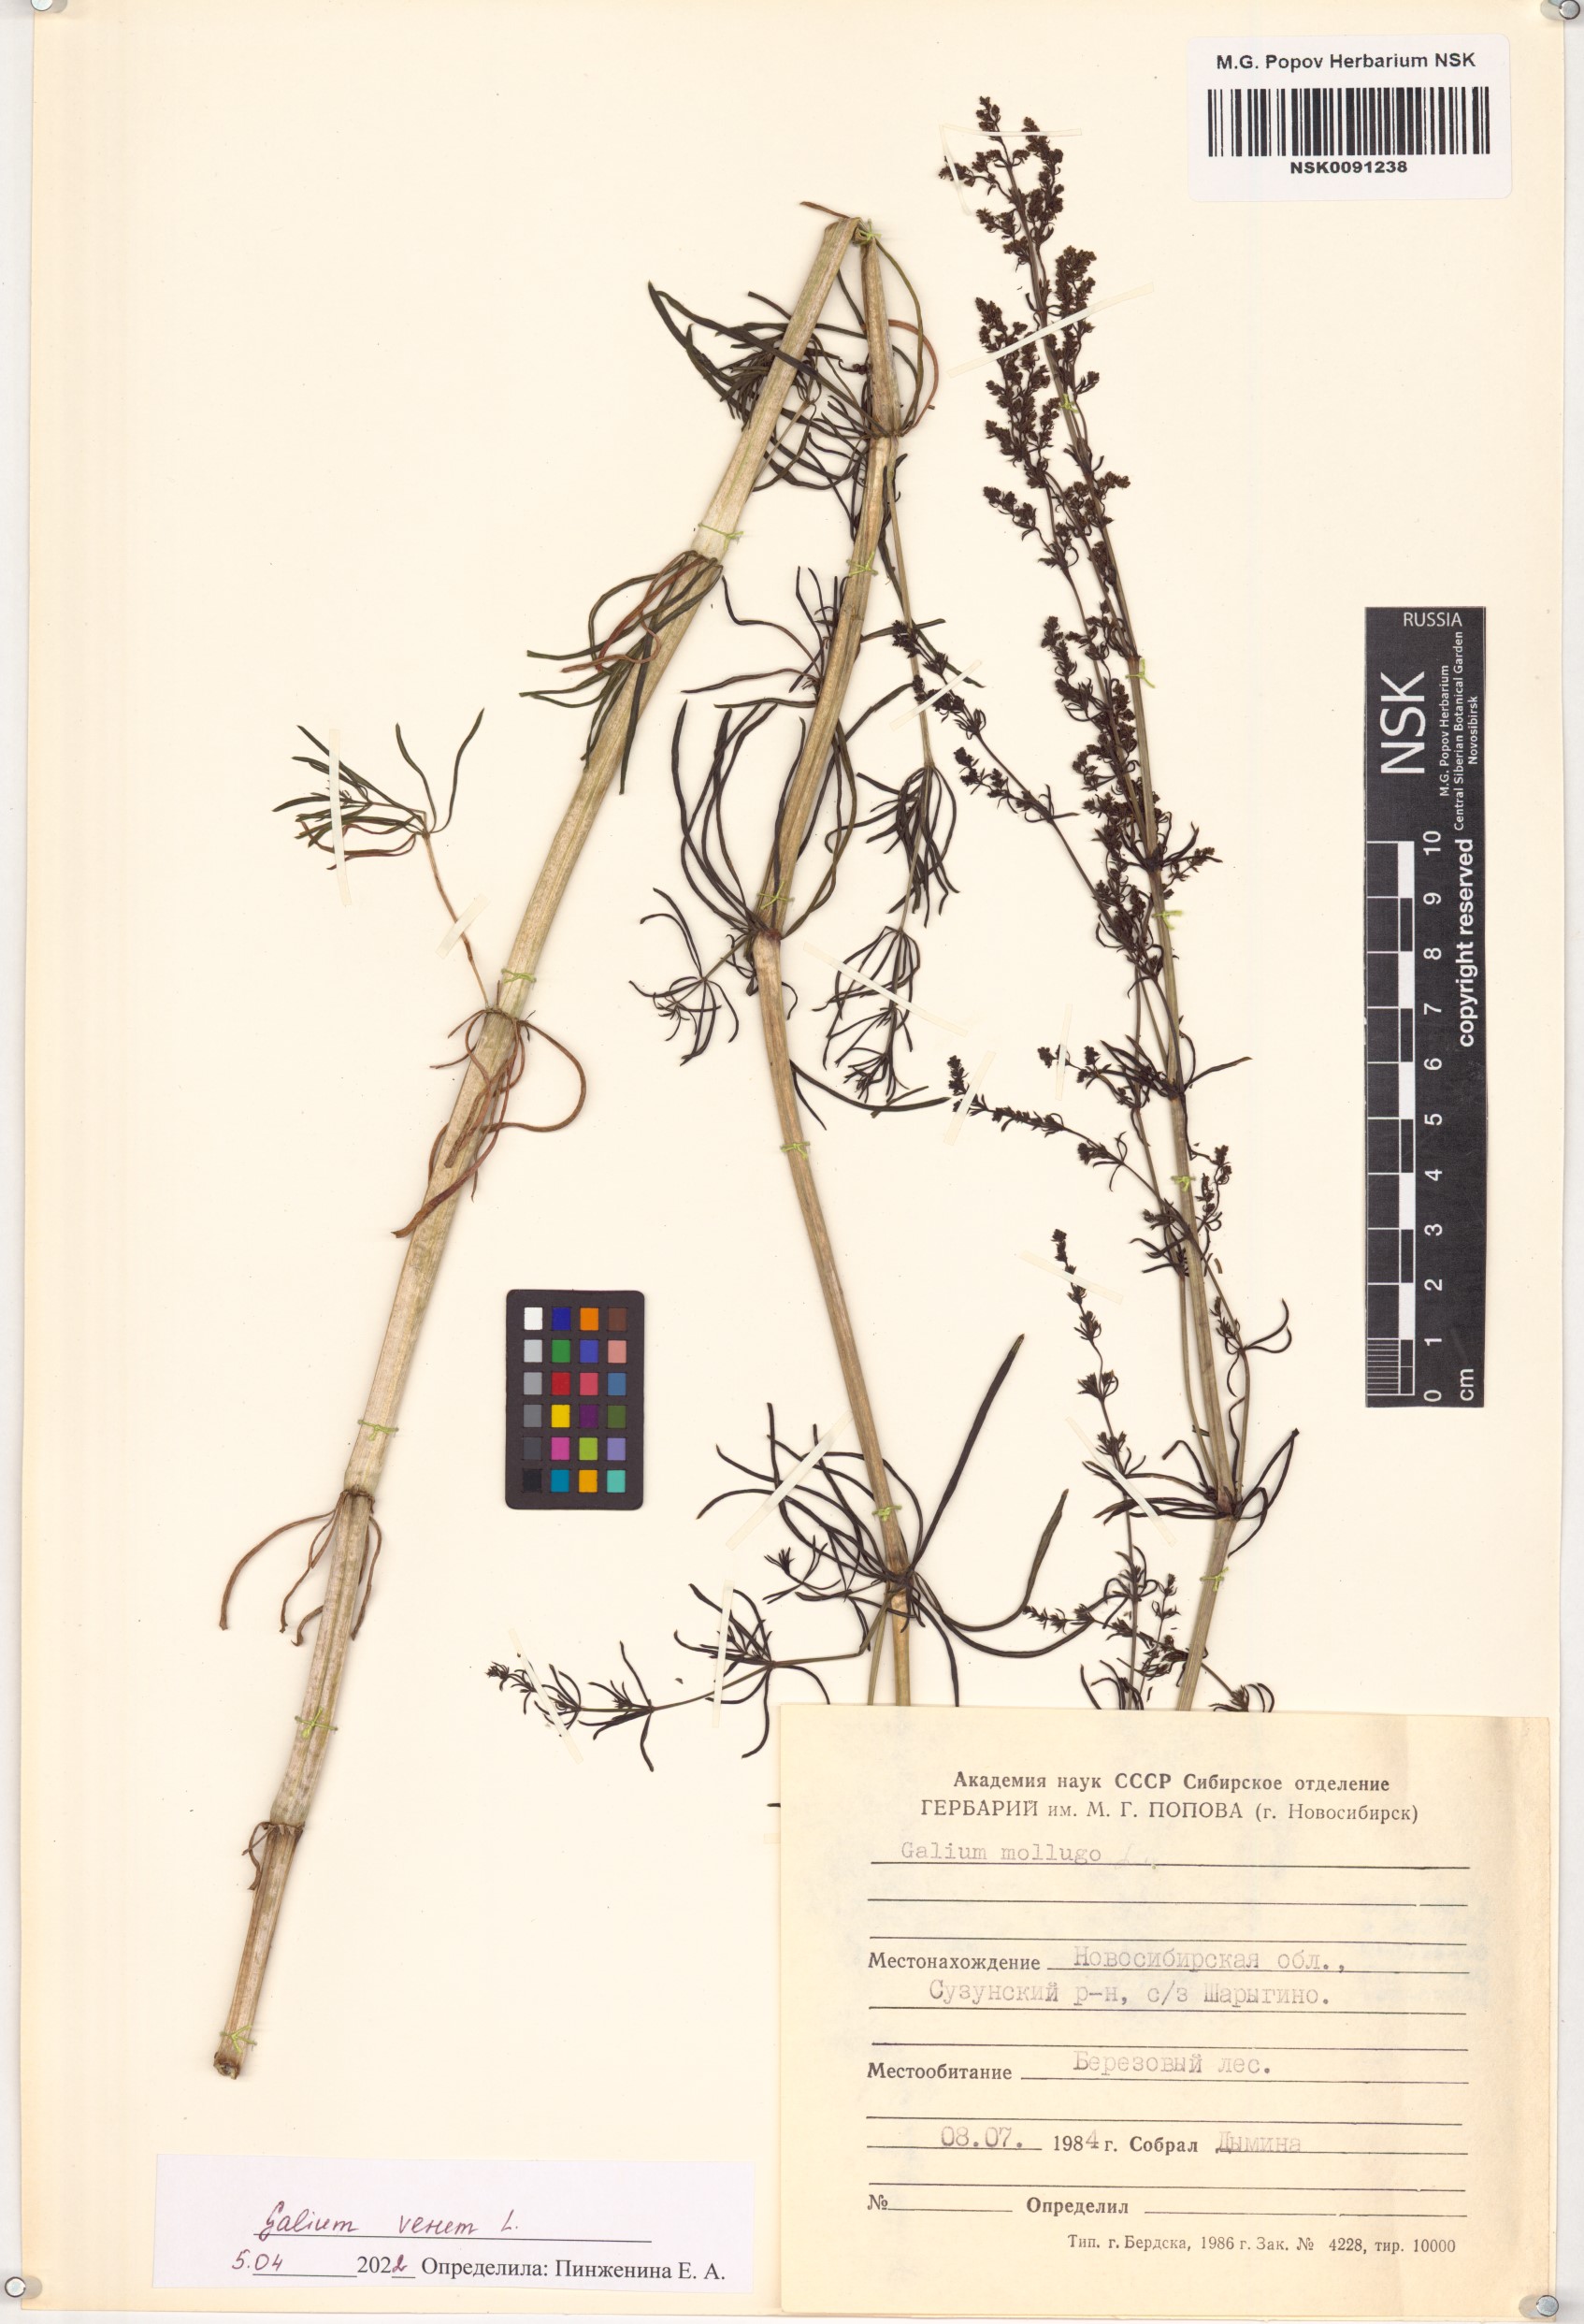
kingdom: Plantae
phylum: Tracheophyta
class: Magnoliopsida
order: Gentianales
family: Rubiaceae
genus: Galium
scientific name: Galium verum
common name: Lady's bedstraw
